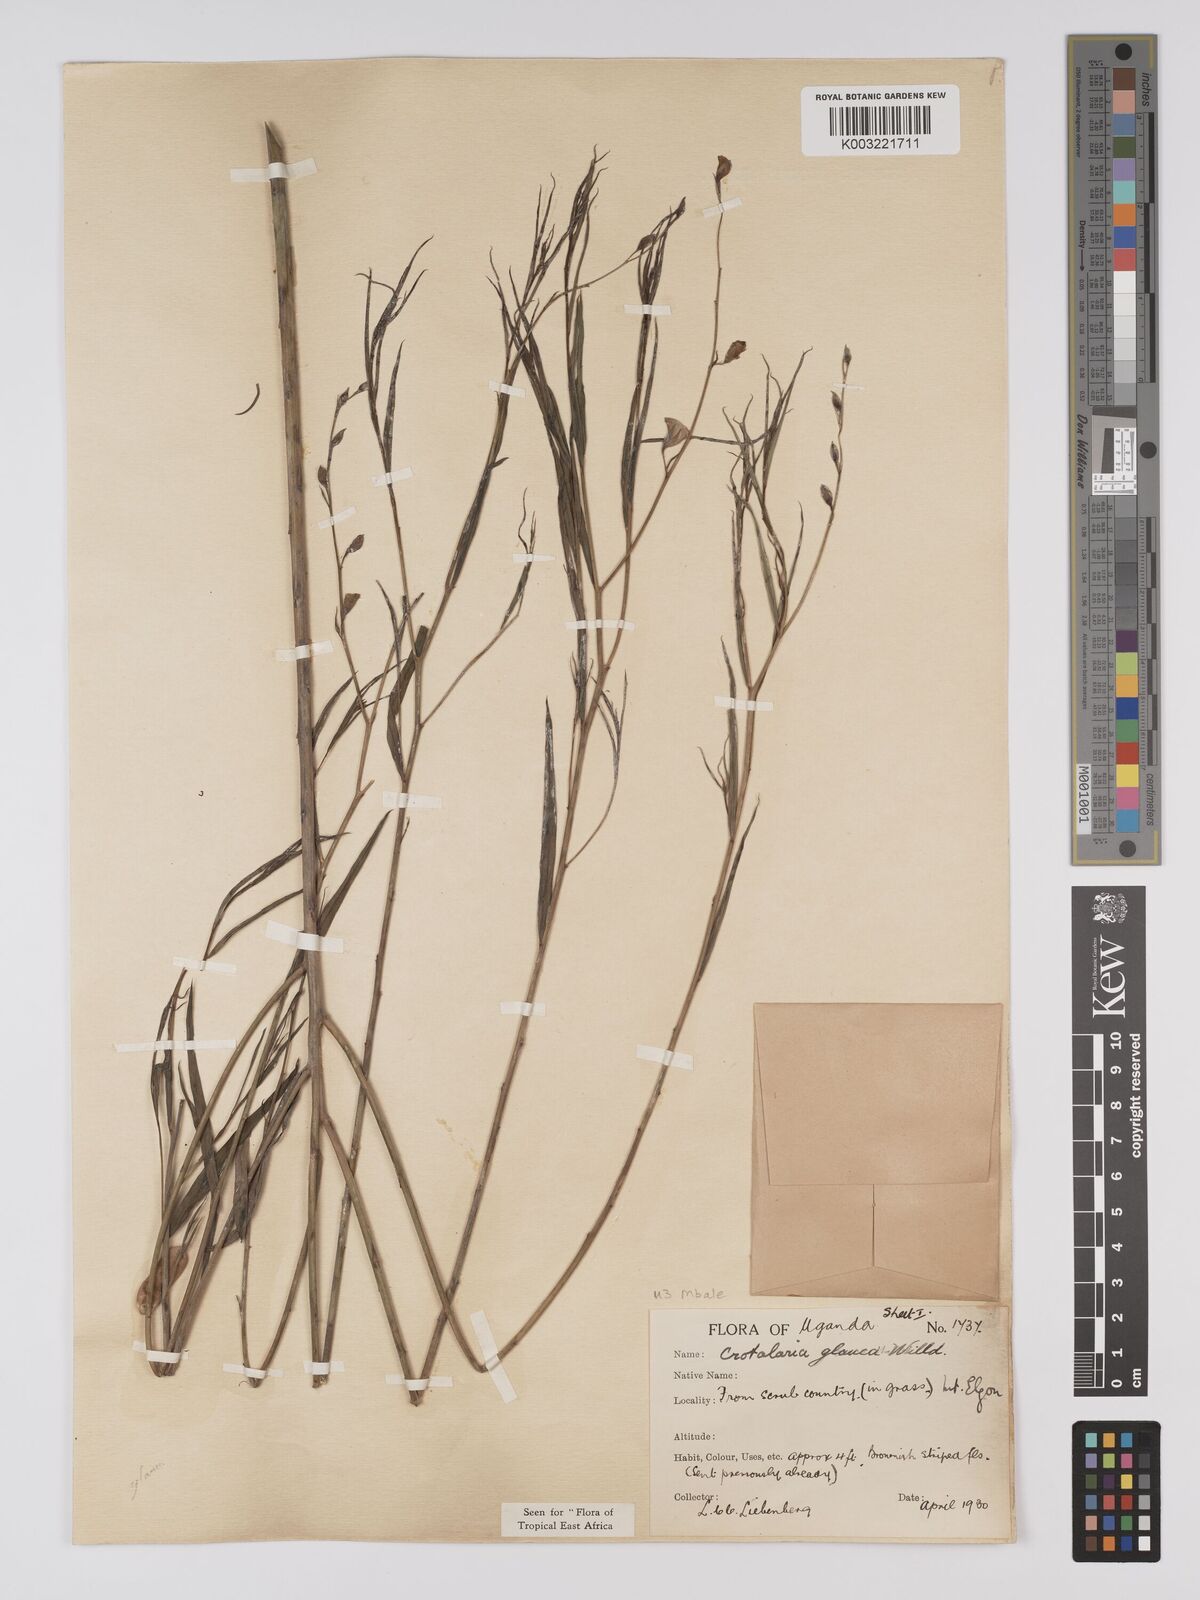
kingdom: Plantae
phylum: Tracheophyta
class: Magnoliopsida
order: Fabales
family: Fabaceae
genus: Crotalaria
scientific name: Crotalaria glauca
